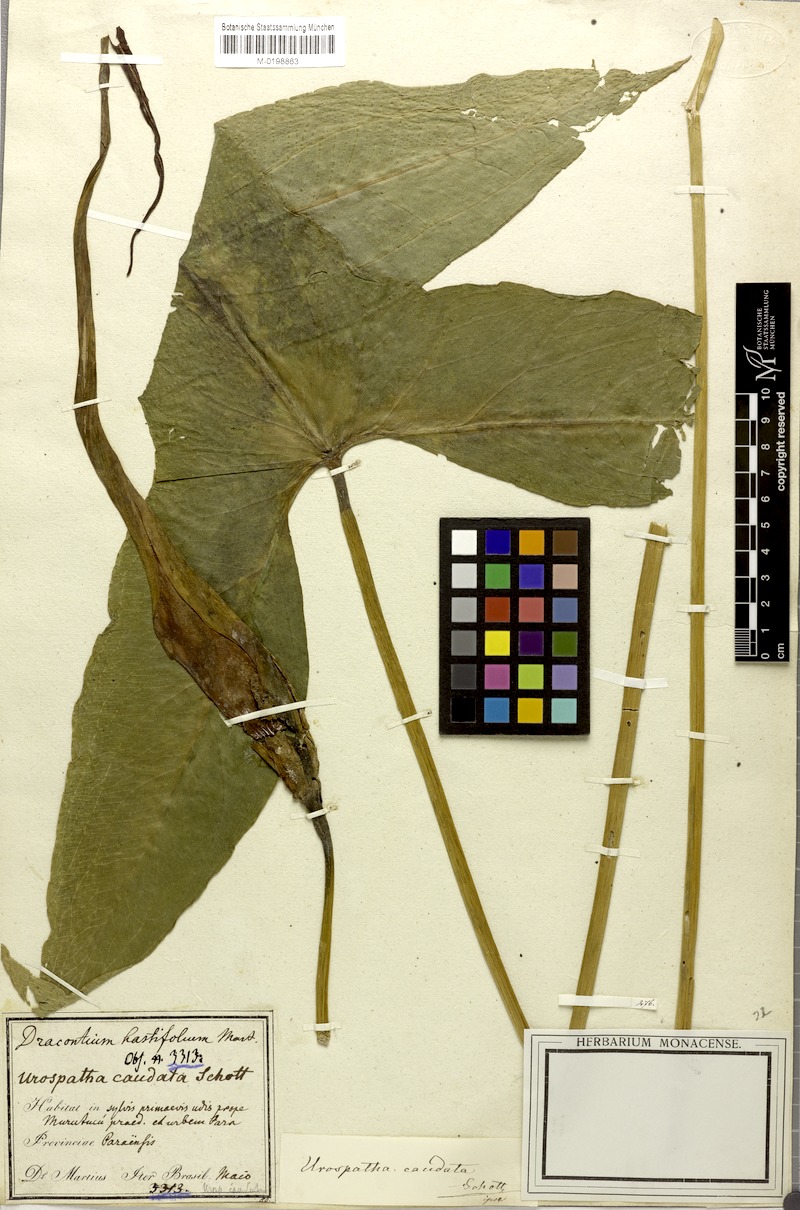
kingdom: Plantae
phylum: Tracheophyta
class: Liliopsida
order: Alismatales
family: Araceae
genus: Urospatha
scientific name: Urospatha caudata
